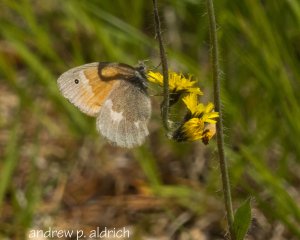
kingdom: Animalia
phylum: Arthropoda
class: Insecta
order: Lepidoptera
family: Nymphalidae
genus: Coenonympha
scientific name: Coenonympha tullia
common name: Large Heath
